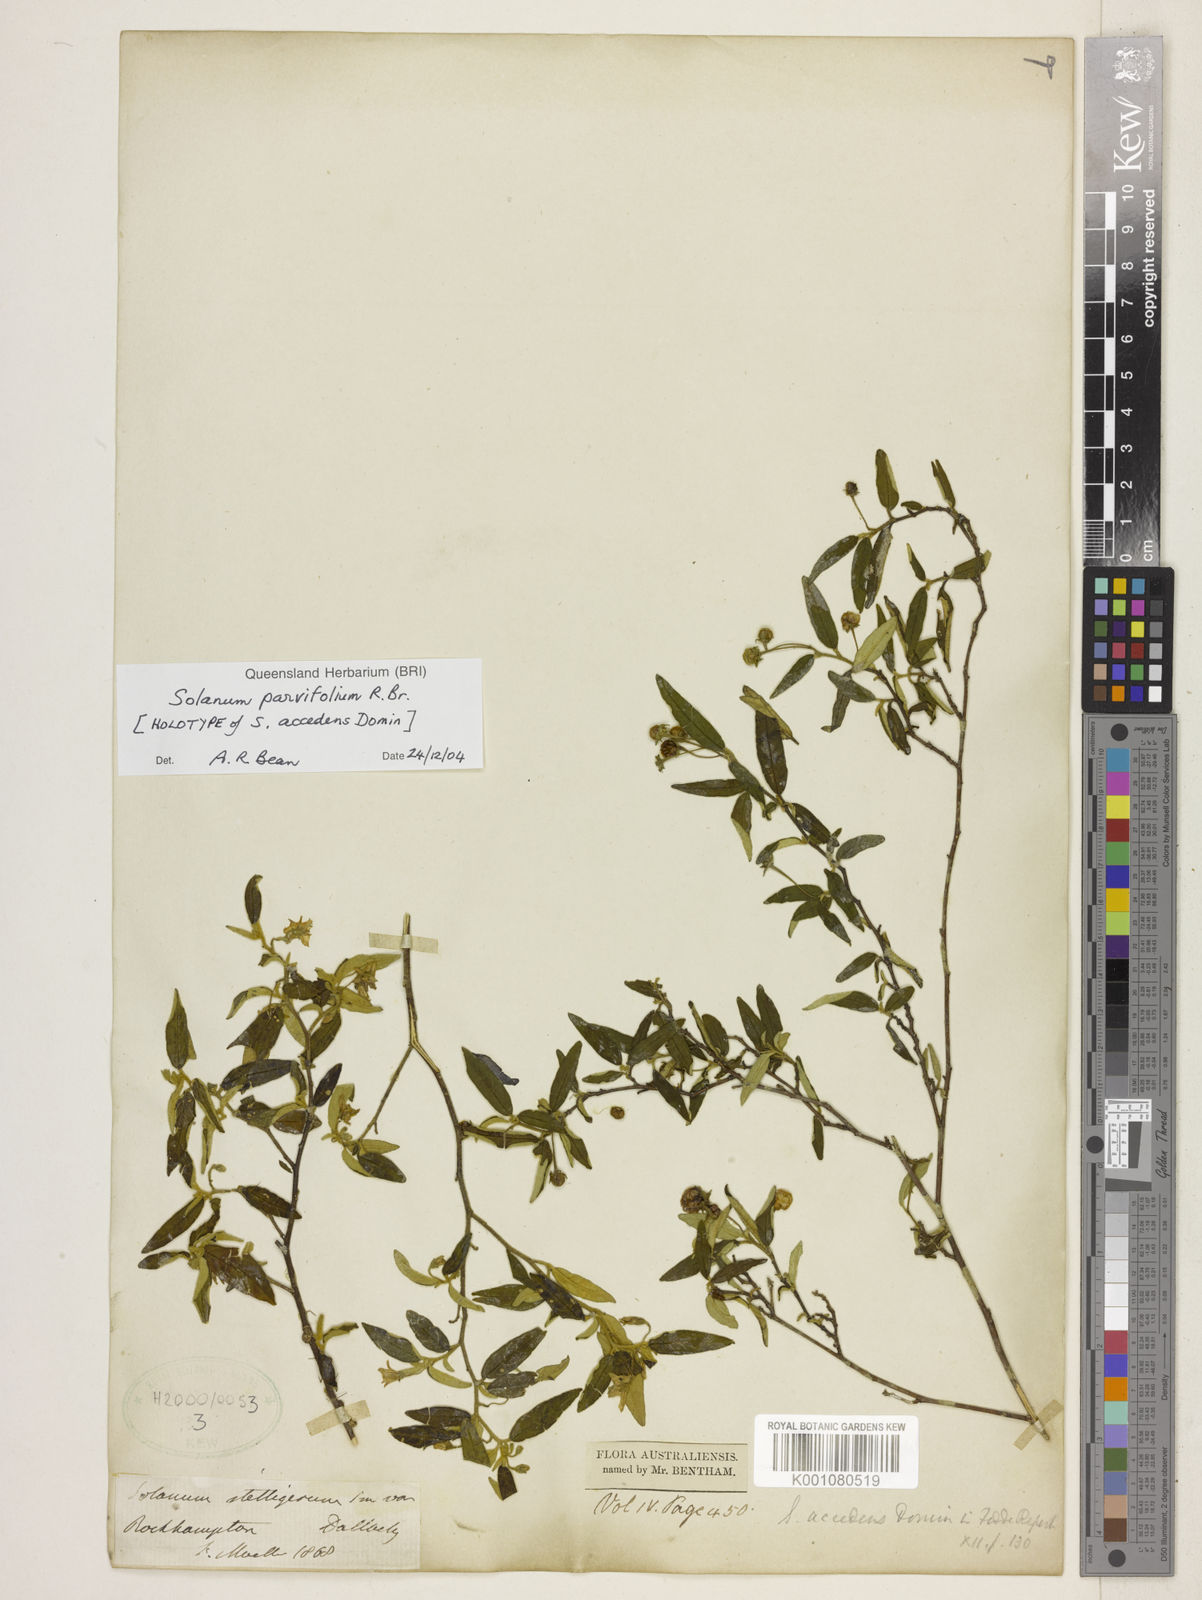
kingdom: Plantae
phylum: Tracheophyta
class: Magnoliopsida
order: Solanales
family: Solanaceae
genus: Solanum
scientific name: Solanum parvifolium
